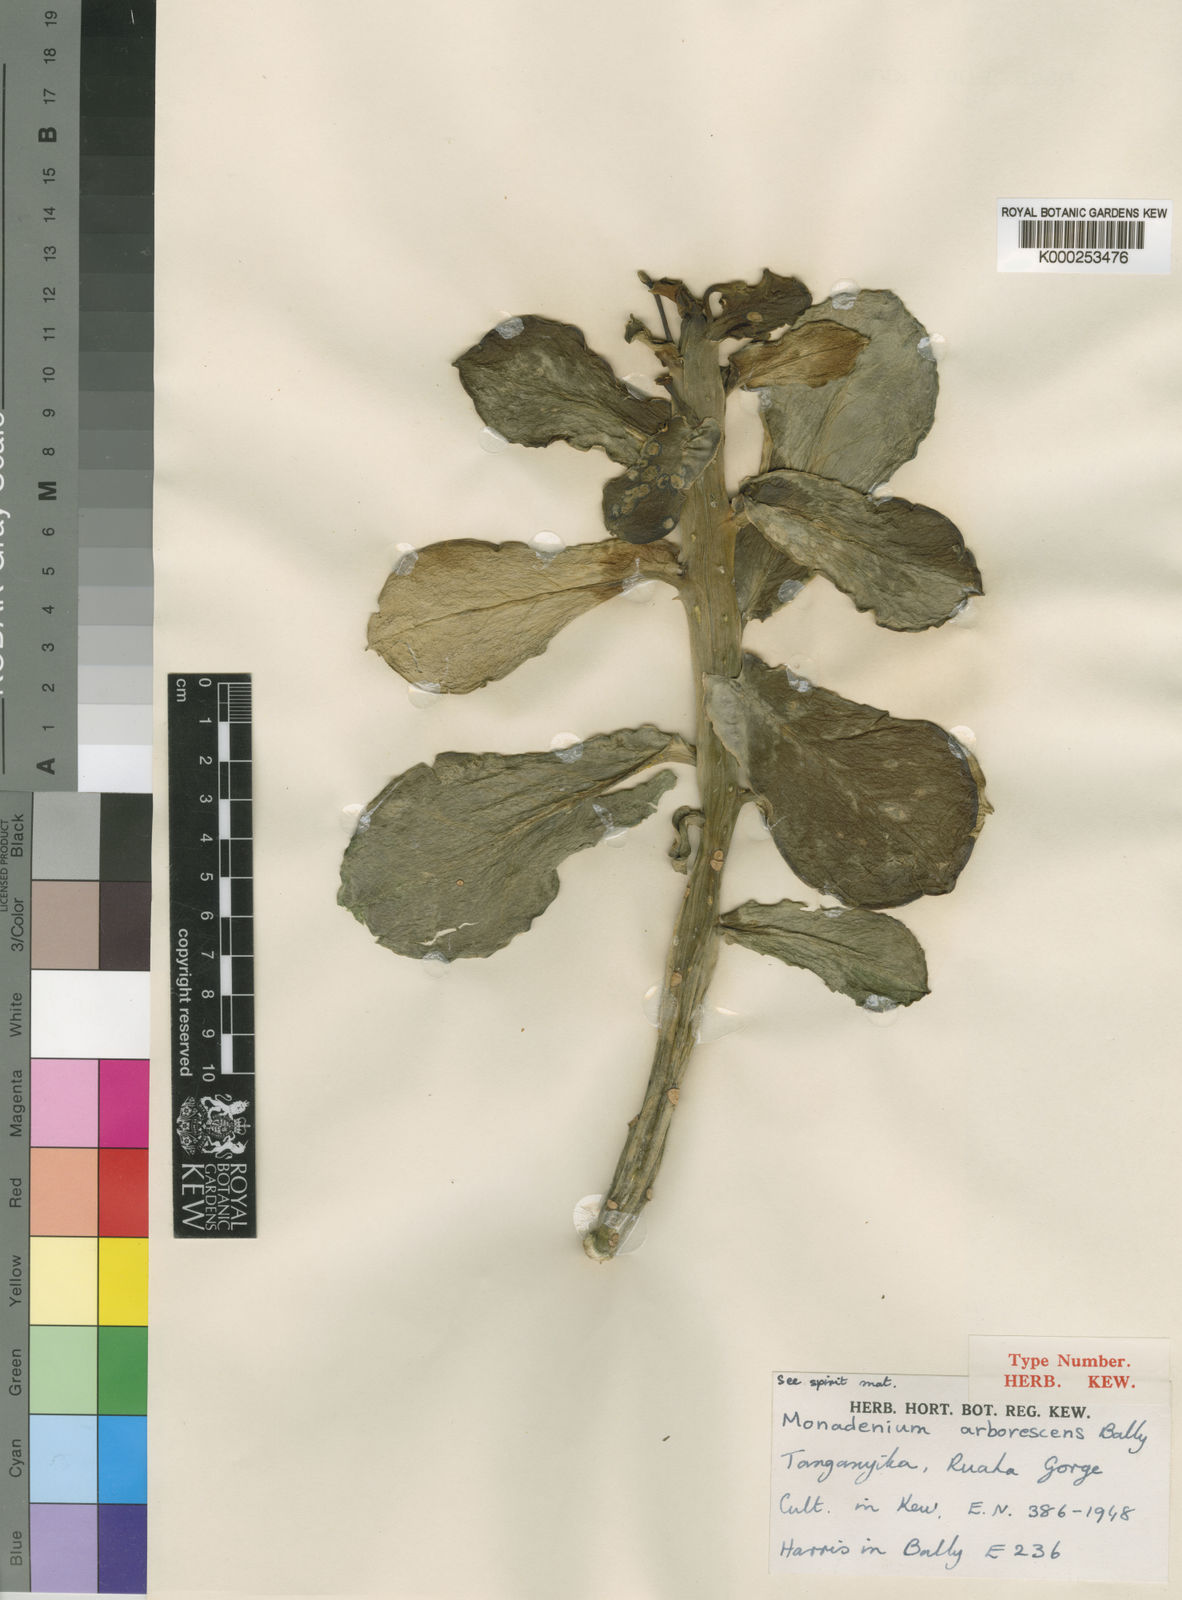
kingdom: Plantae
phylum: Tracheophyta
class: Magnoliopsida
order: Malpighiales
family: Euphorbiaceae
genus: Euphorbia
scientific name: Euphorbia neoarborescens
